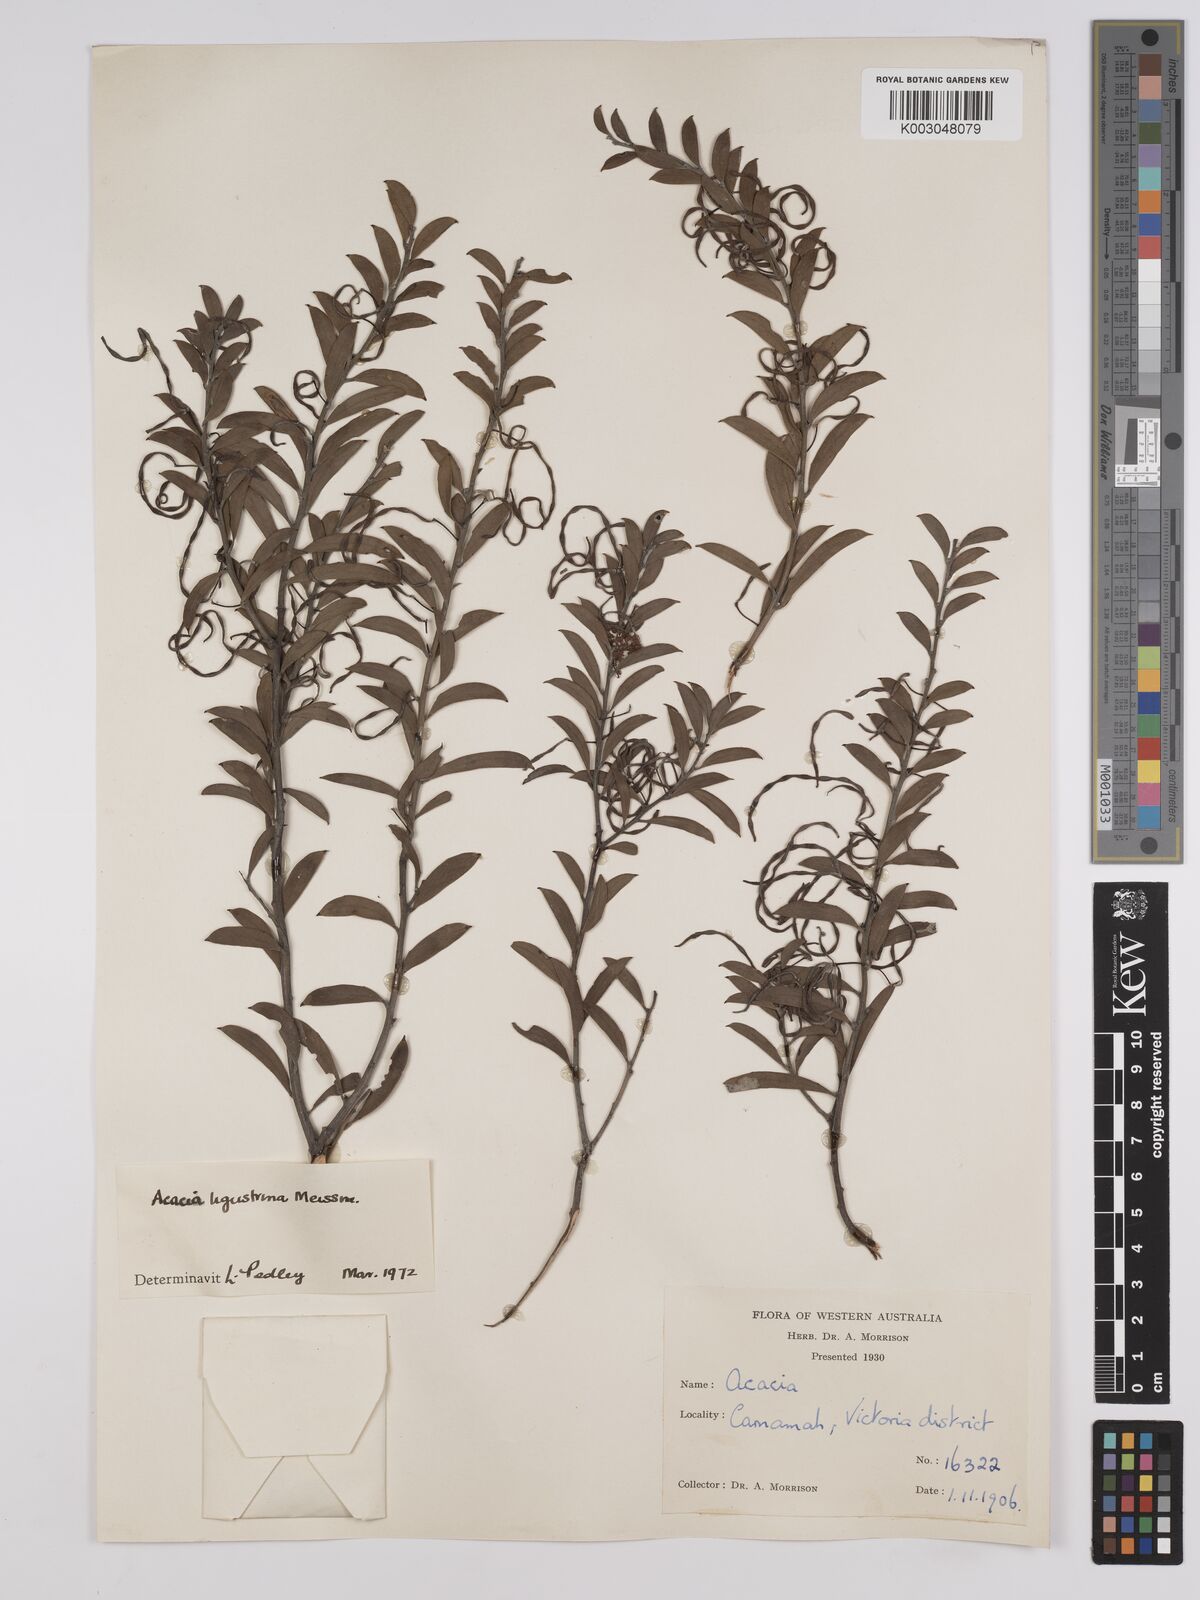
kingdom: Plantae
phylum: Tracheophyta
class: Magnoliopsida
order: Fabales
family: Fabaceae
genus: Acacia
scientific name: Acacia ligustrina
